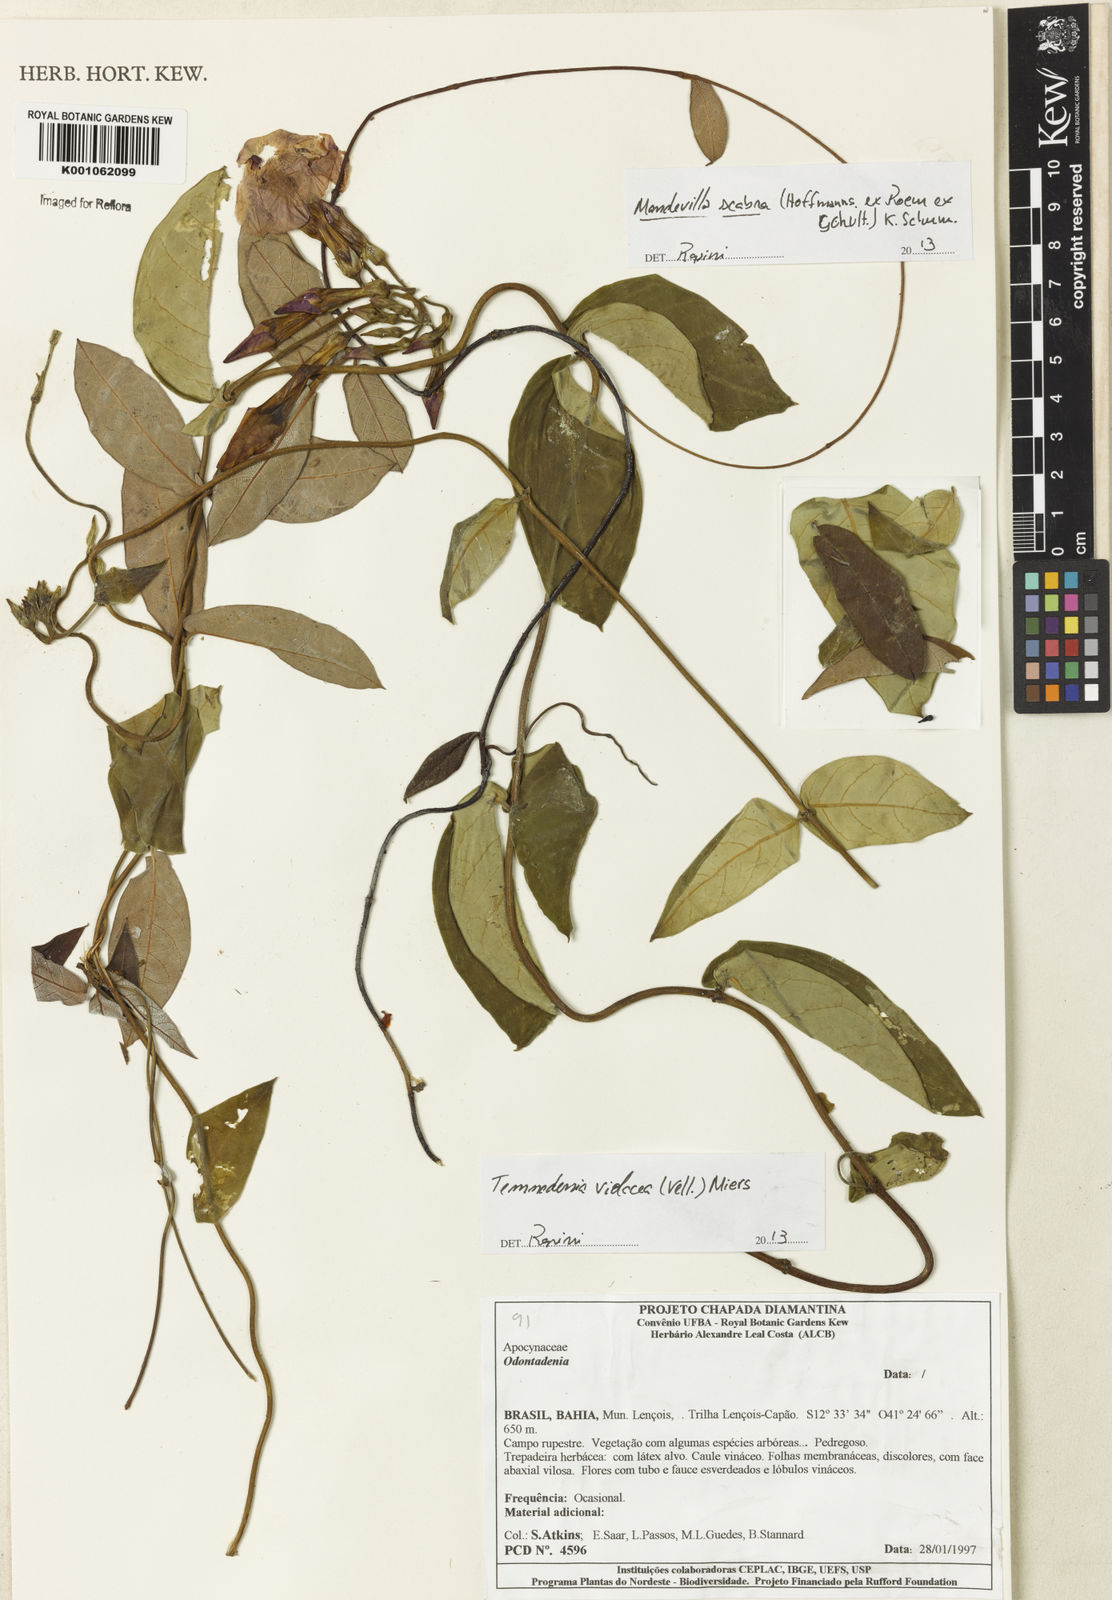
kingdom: Plantae
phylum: Tracheophyta
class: Magnoliopsida
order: Gentianales
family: Apocynaceae
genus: Temnadenia
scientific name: Temnadenia violacea
